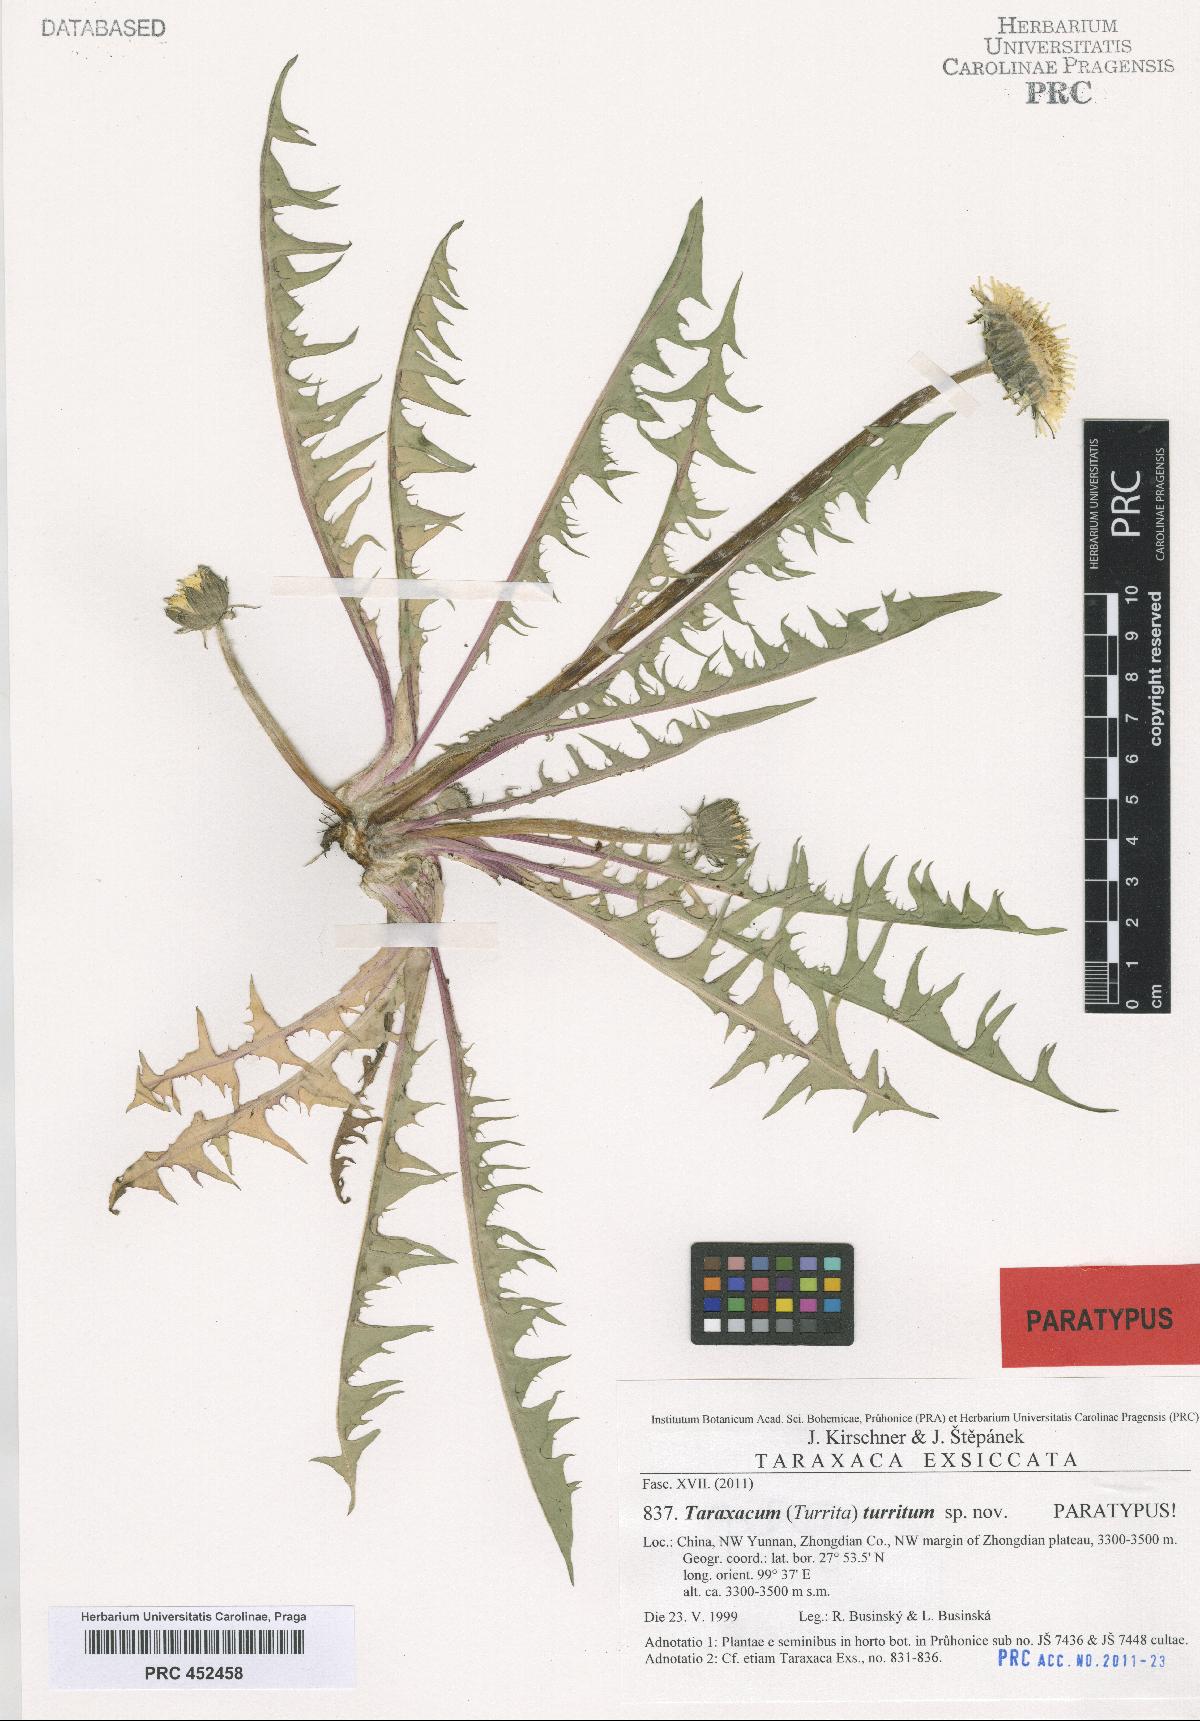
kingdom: Plantae
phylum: Tracheophyta
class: Magnoliopsida
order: Asterales
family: Asteraceae
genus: Taraxacum
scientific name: Taraxacum turritum
